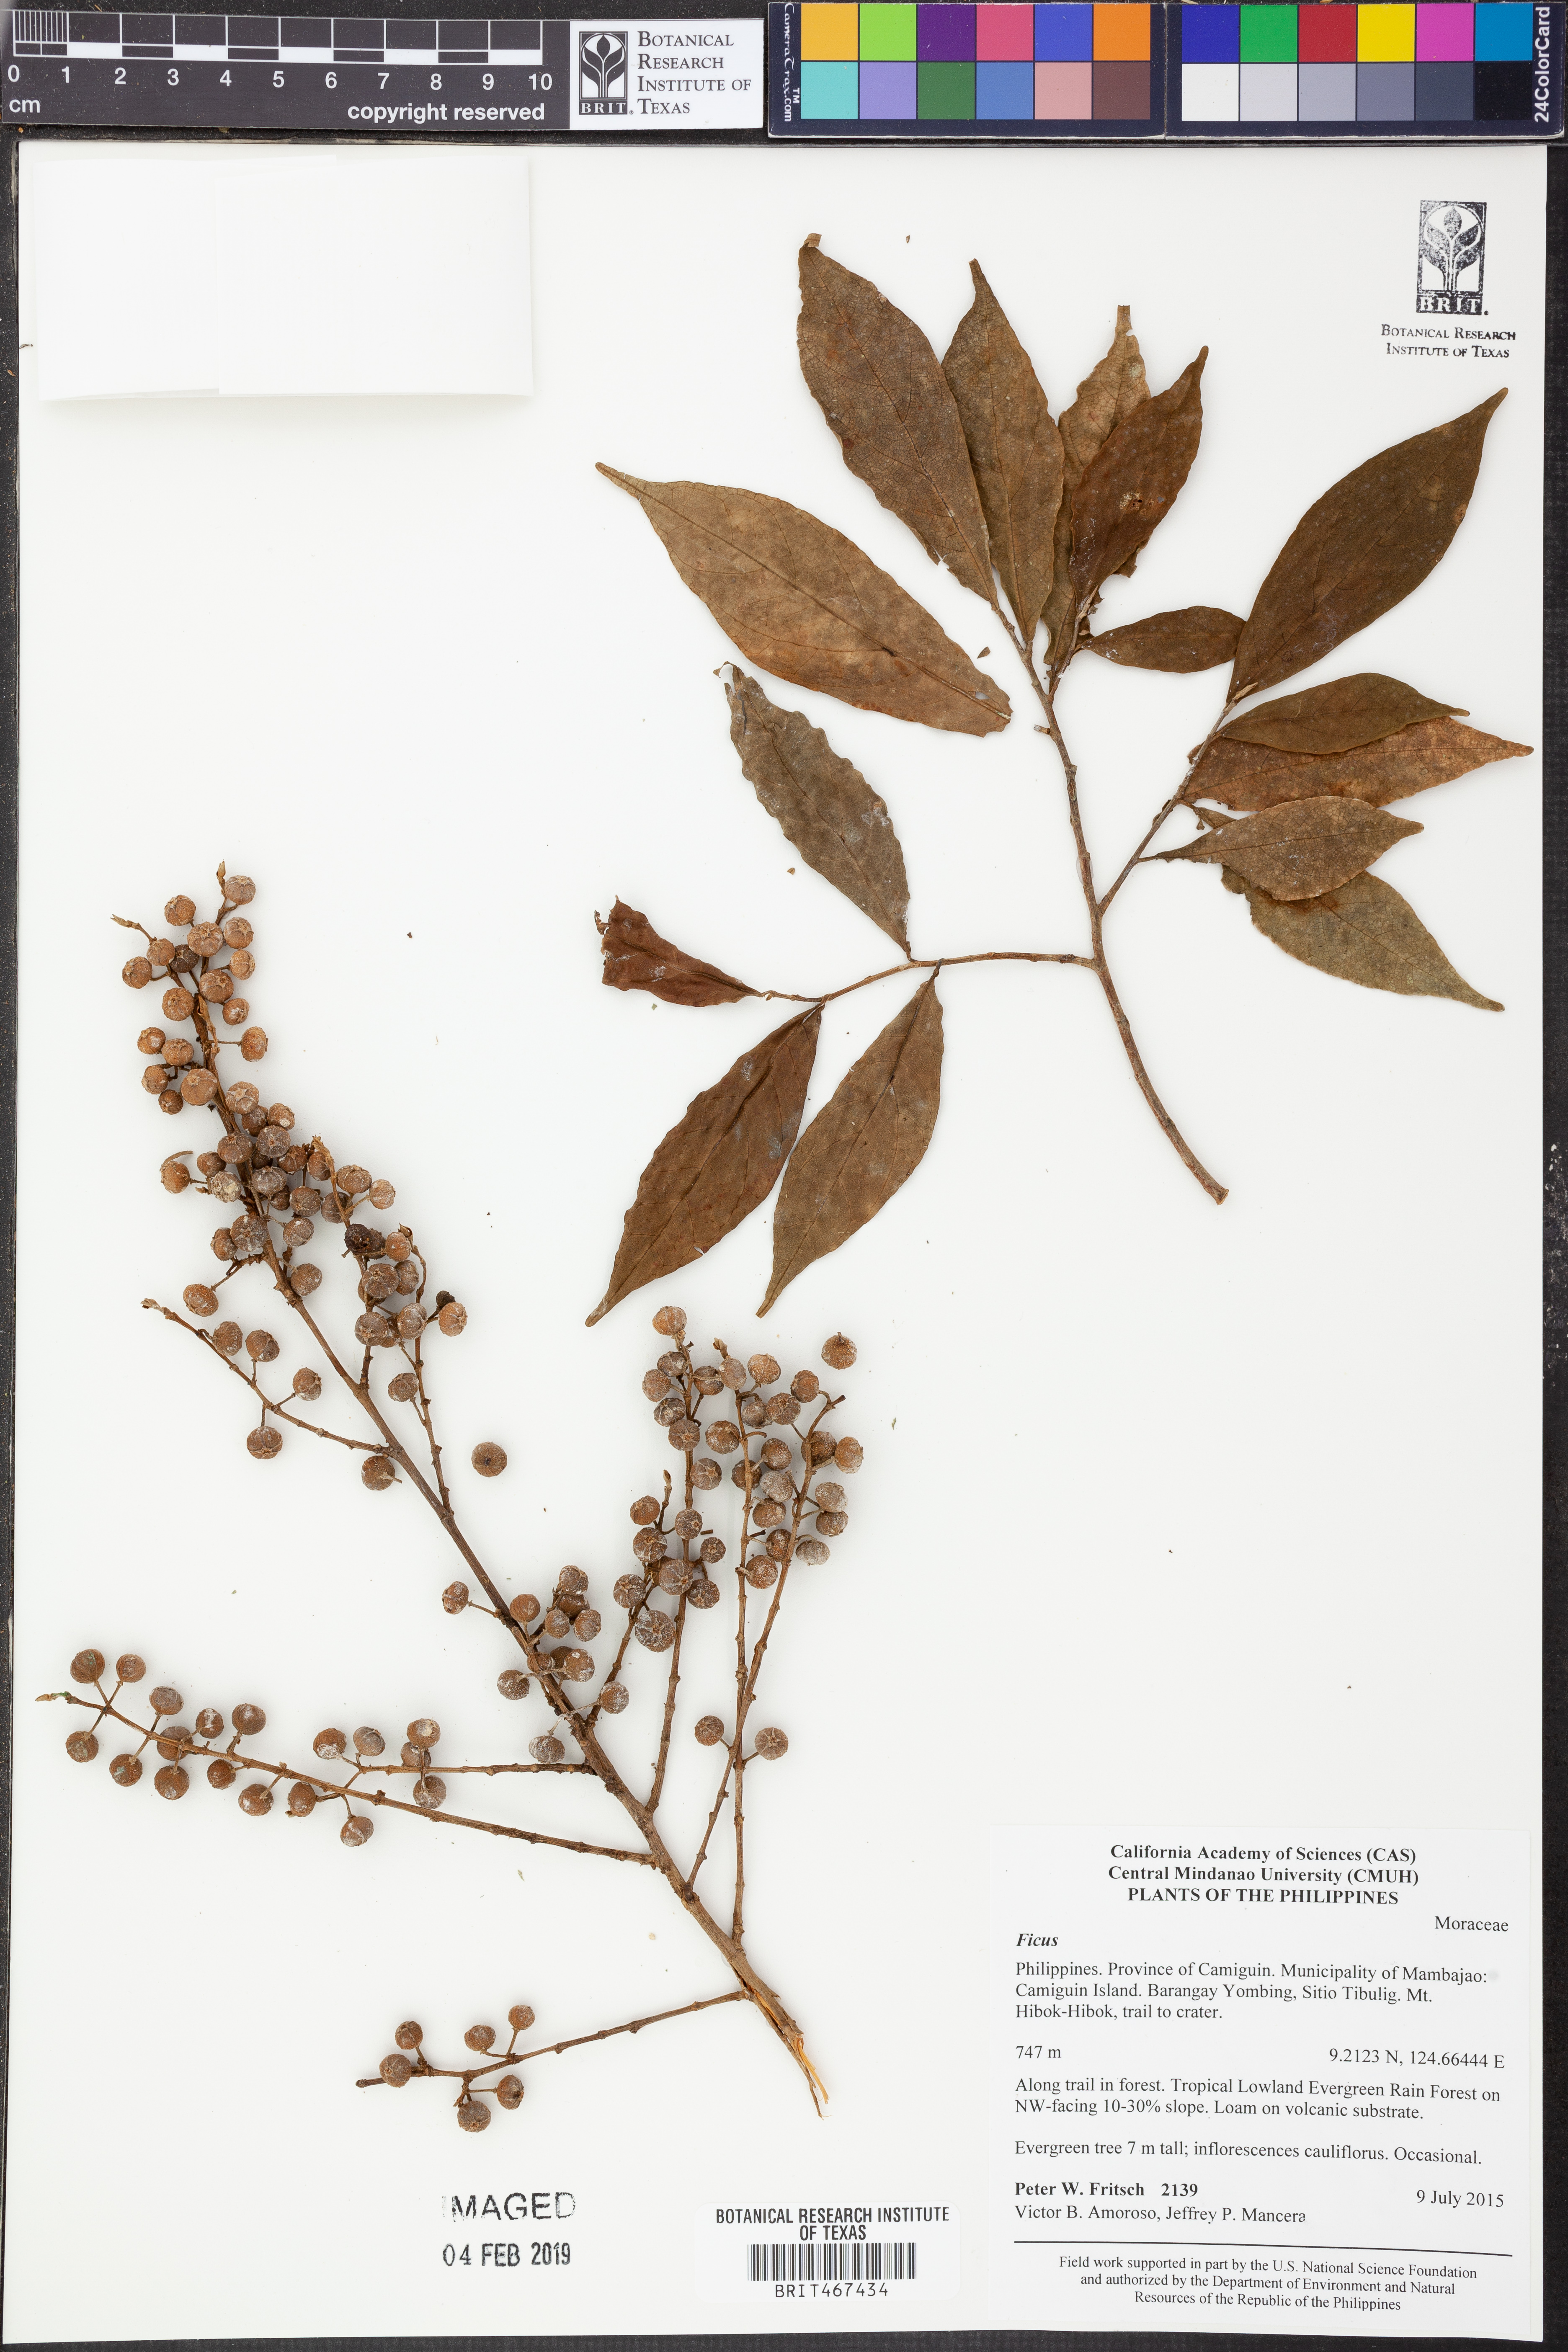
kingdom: Plantae
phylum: Tracheophyta
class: Magnoliopsida
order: Rosales
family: Moraceae
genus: Ficus
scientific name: Ficus
